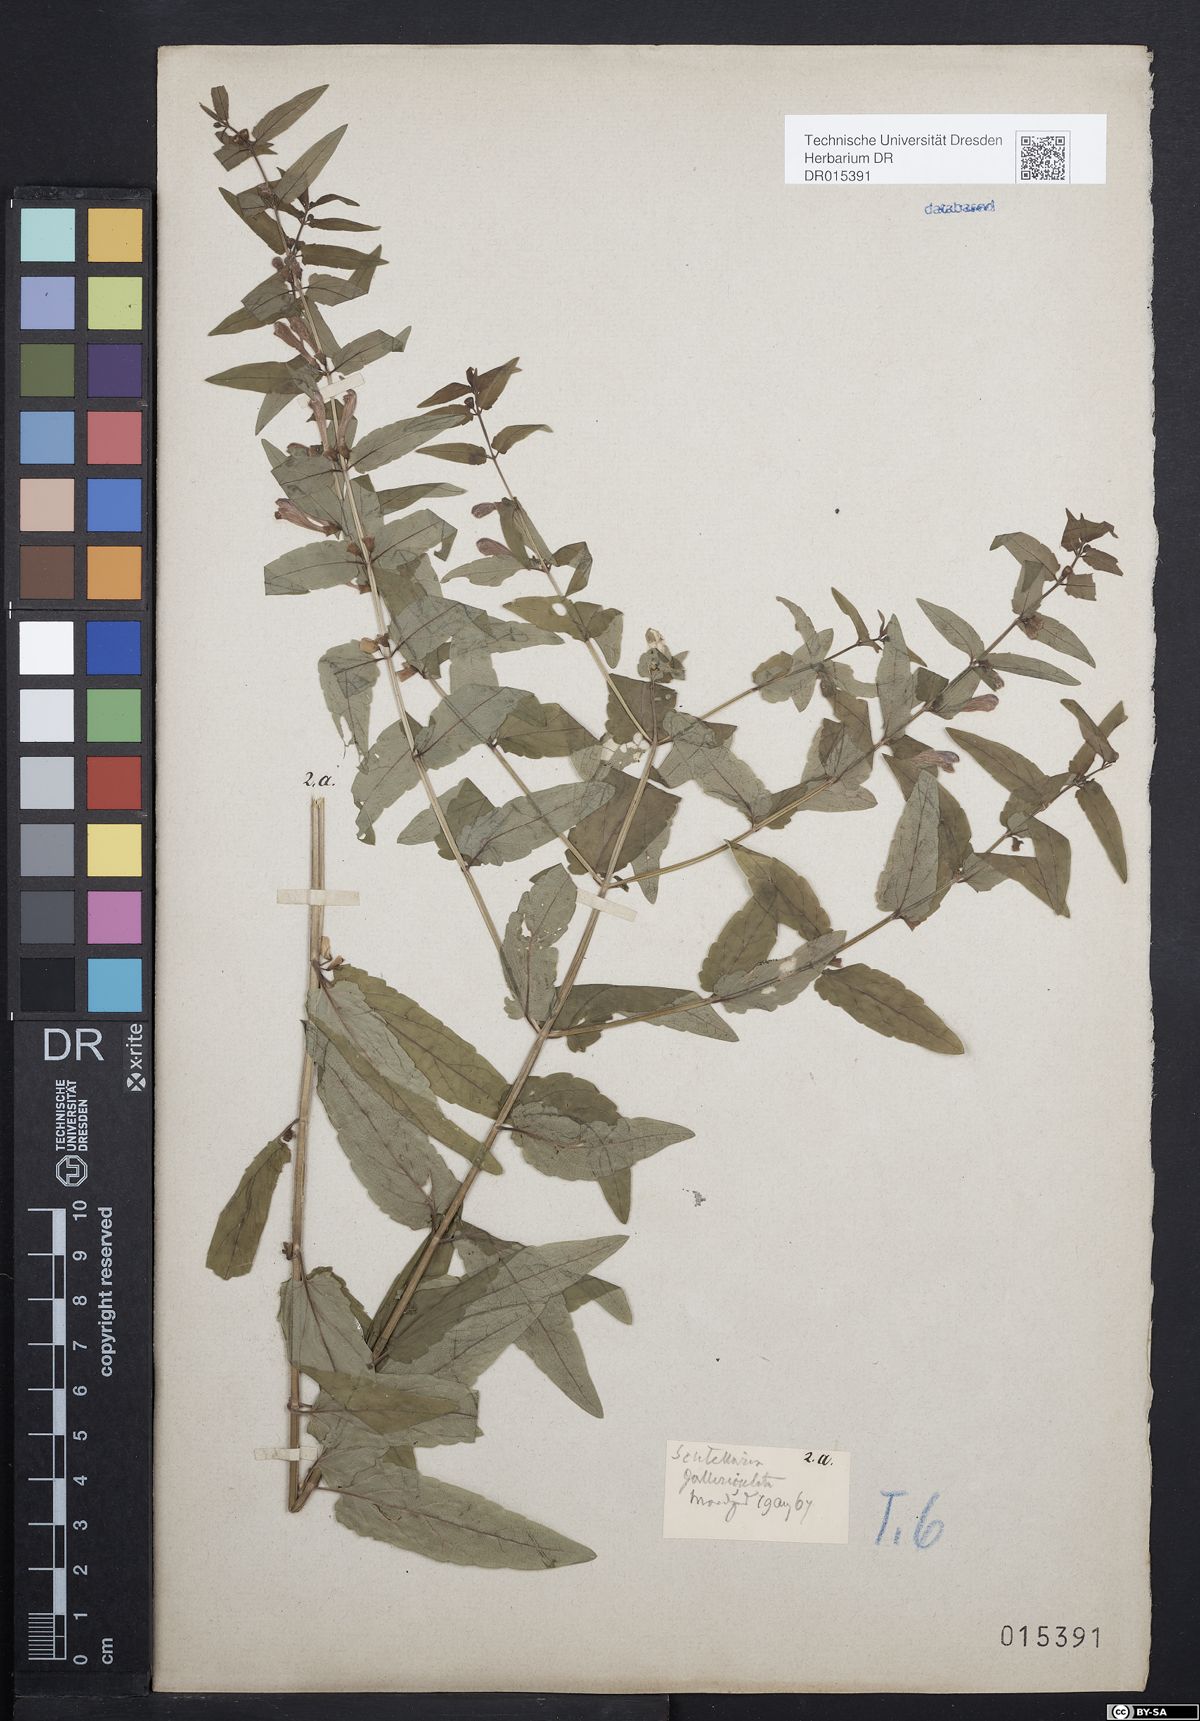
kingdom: Plantae
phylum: Tracheophyta
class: Magnoliopsida
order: Lamiales
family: Lamiaceae
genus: Scutellaria
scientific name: Scutellaria galericulata
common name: Skullcap
